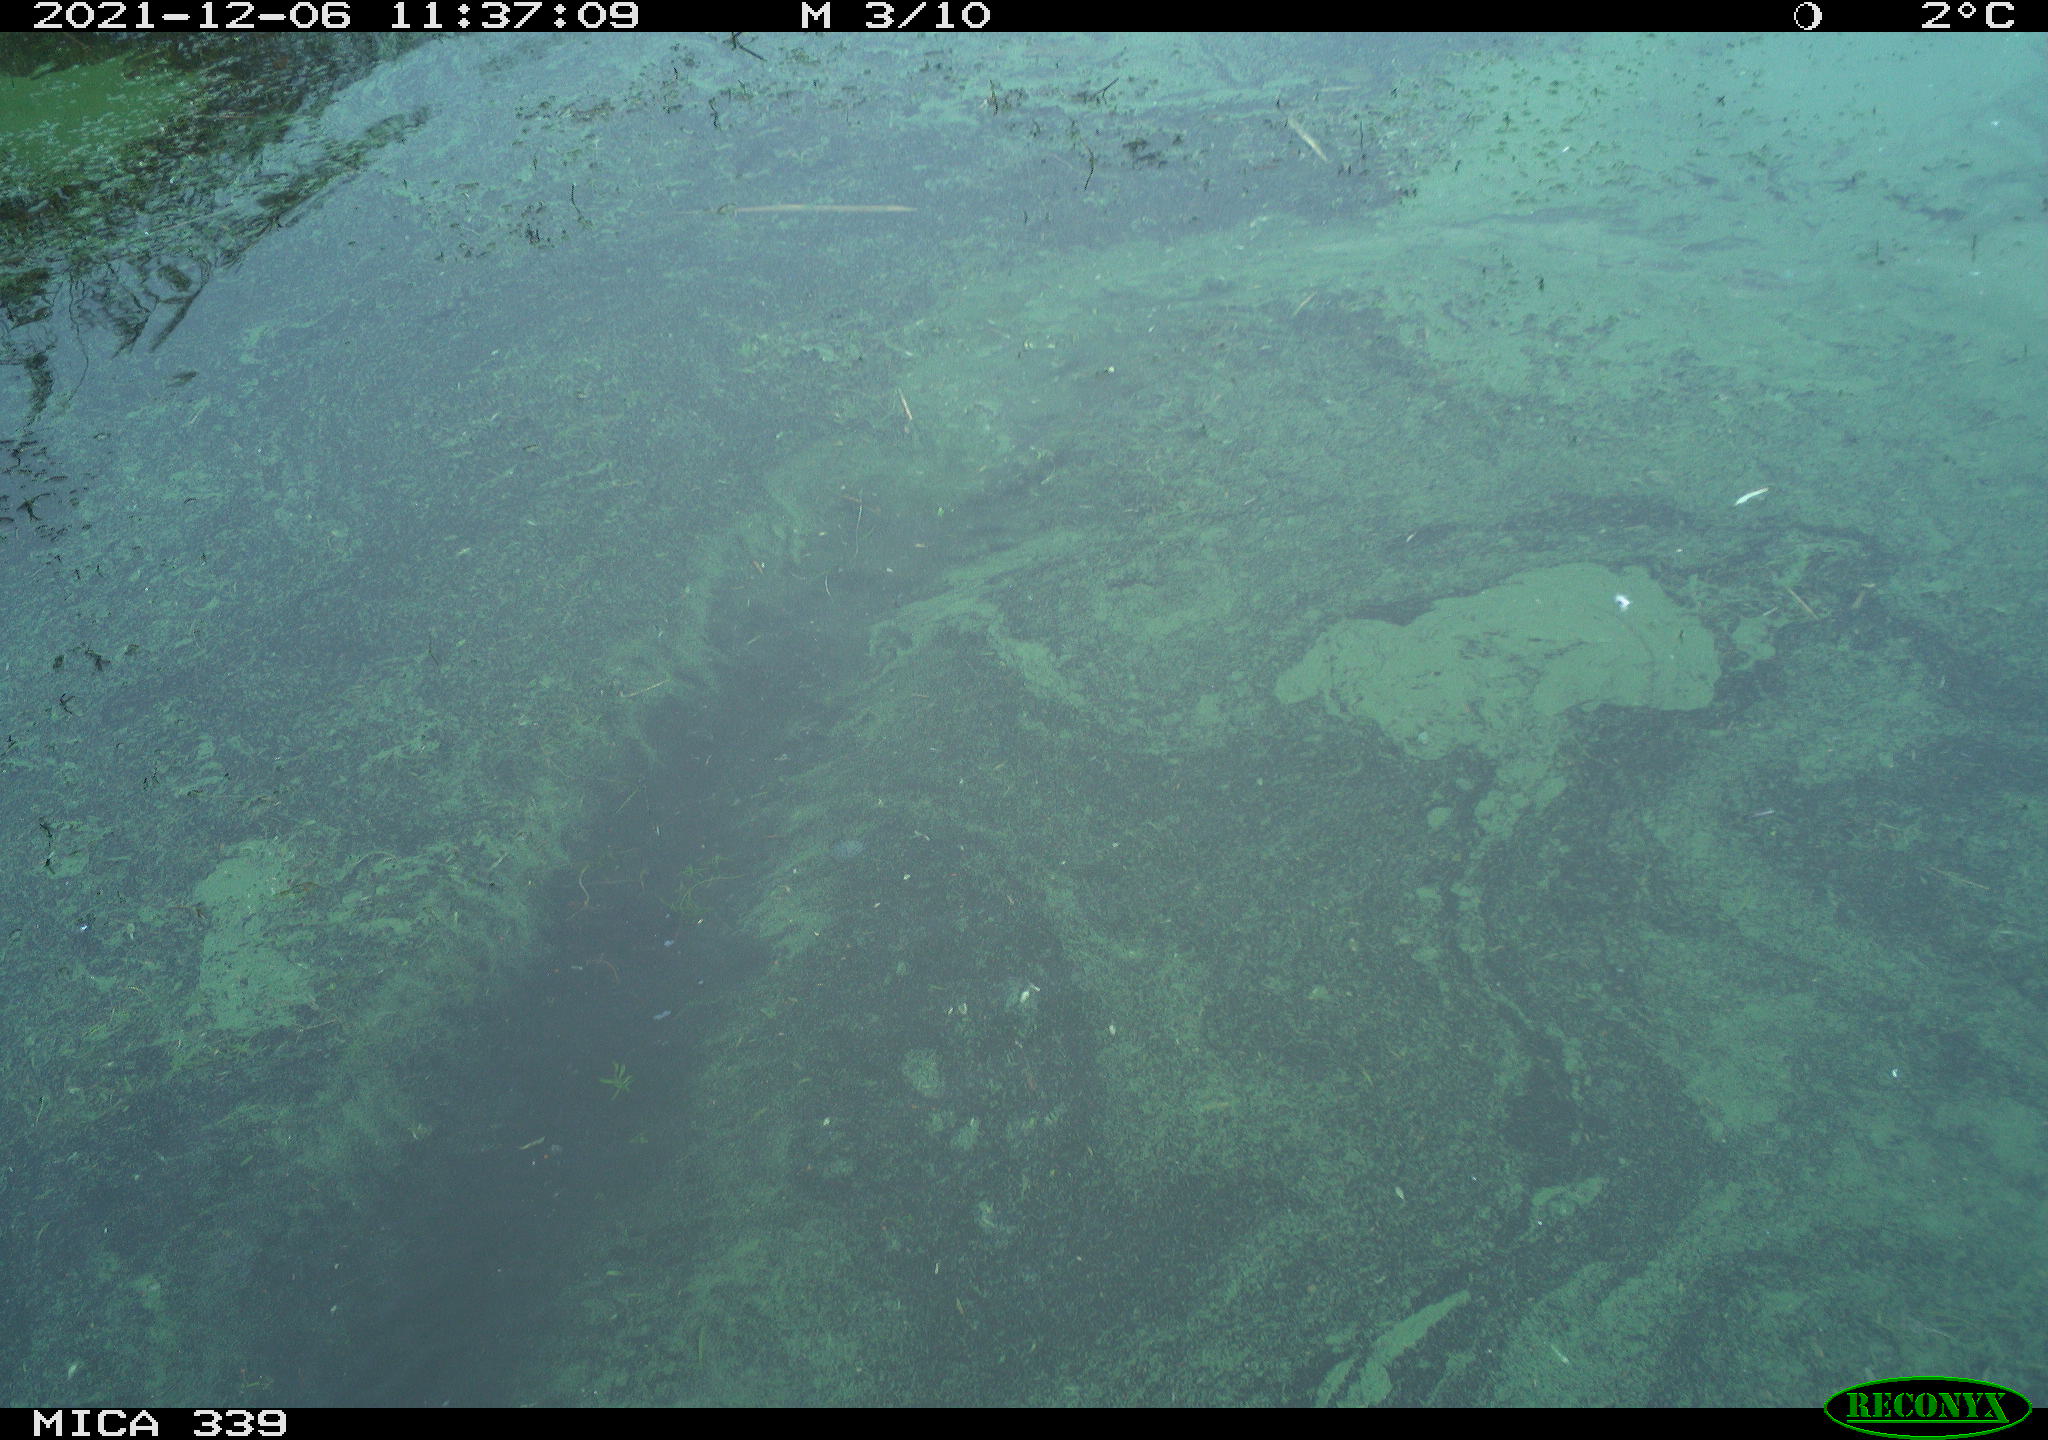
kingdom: Animalia
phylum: Chordata
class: Aves
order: Gruiformes
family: Rallidae
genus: Fulica
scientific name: Fulica atra
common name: Eurasian coot
